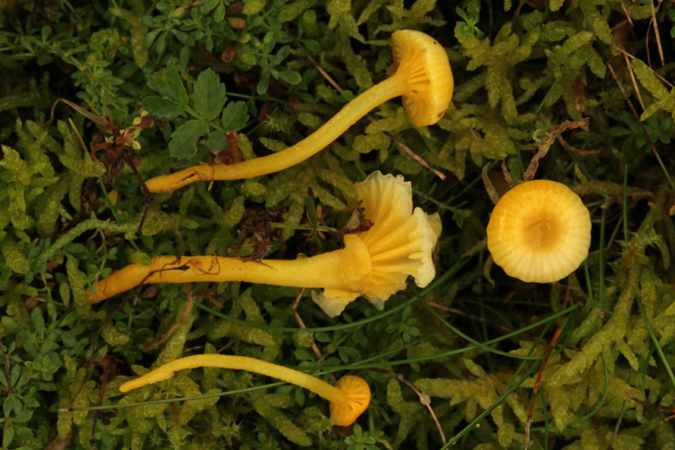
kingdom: Fungi
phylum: Basidiomycota
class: Agaricomycetes
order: Agaricales
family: Hygrophoraceae
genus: Gloioxanthomyces
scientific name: Gloioxanthomyces vitellinus
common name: kromgul vokshat
